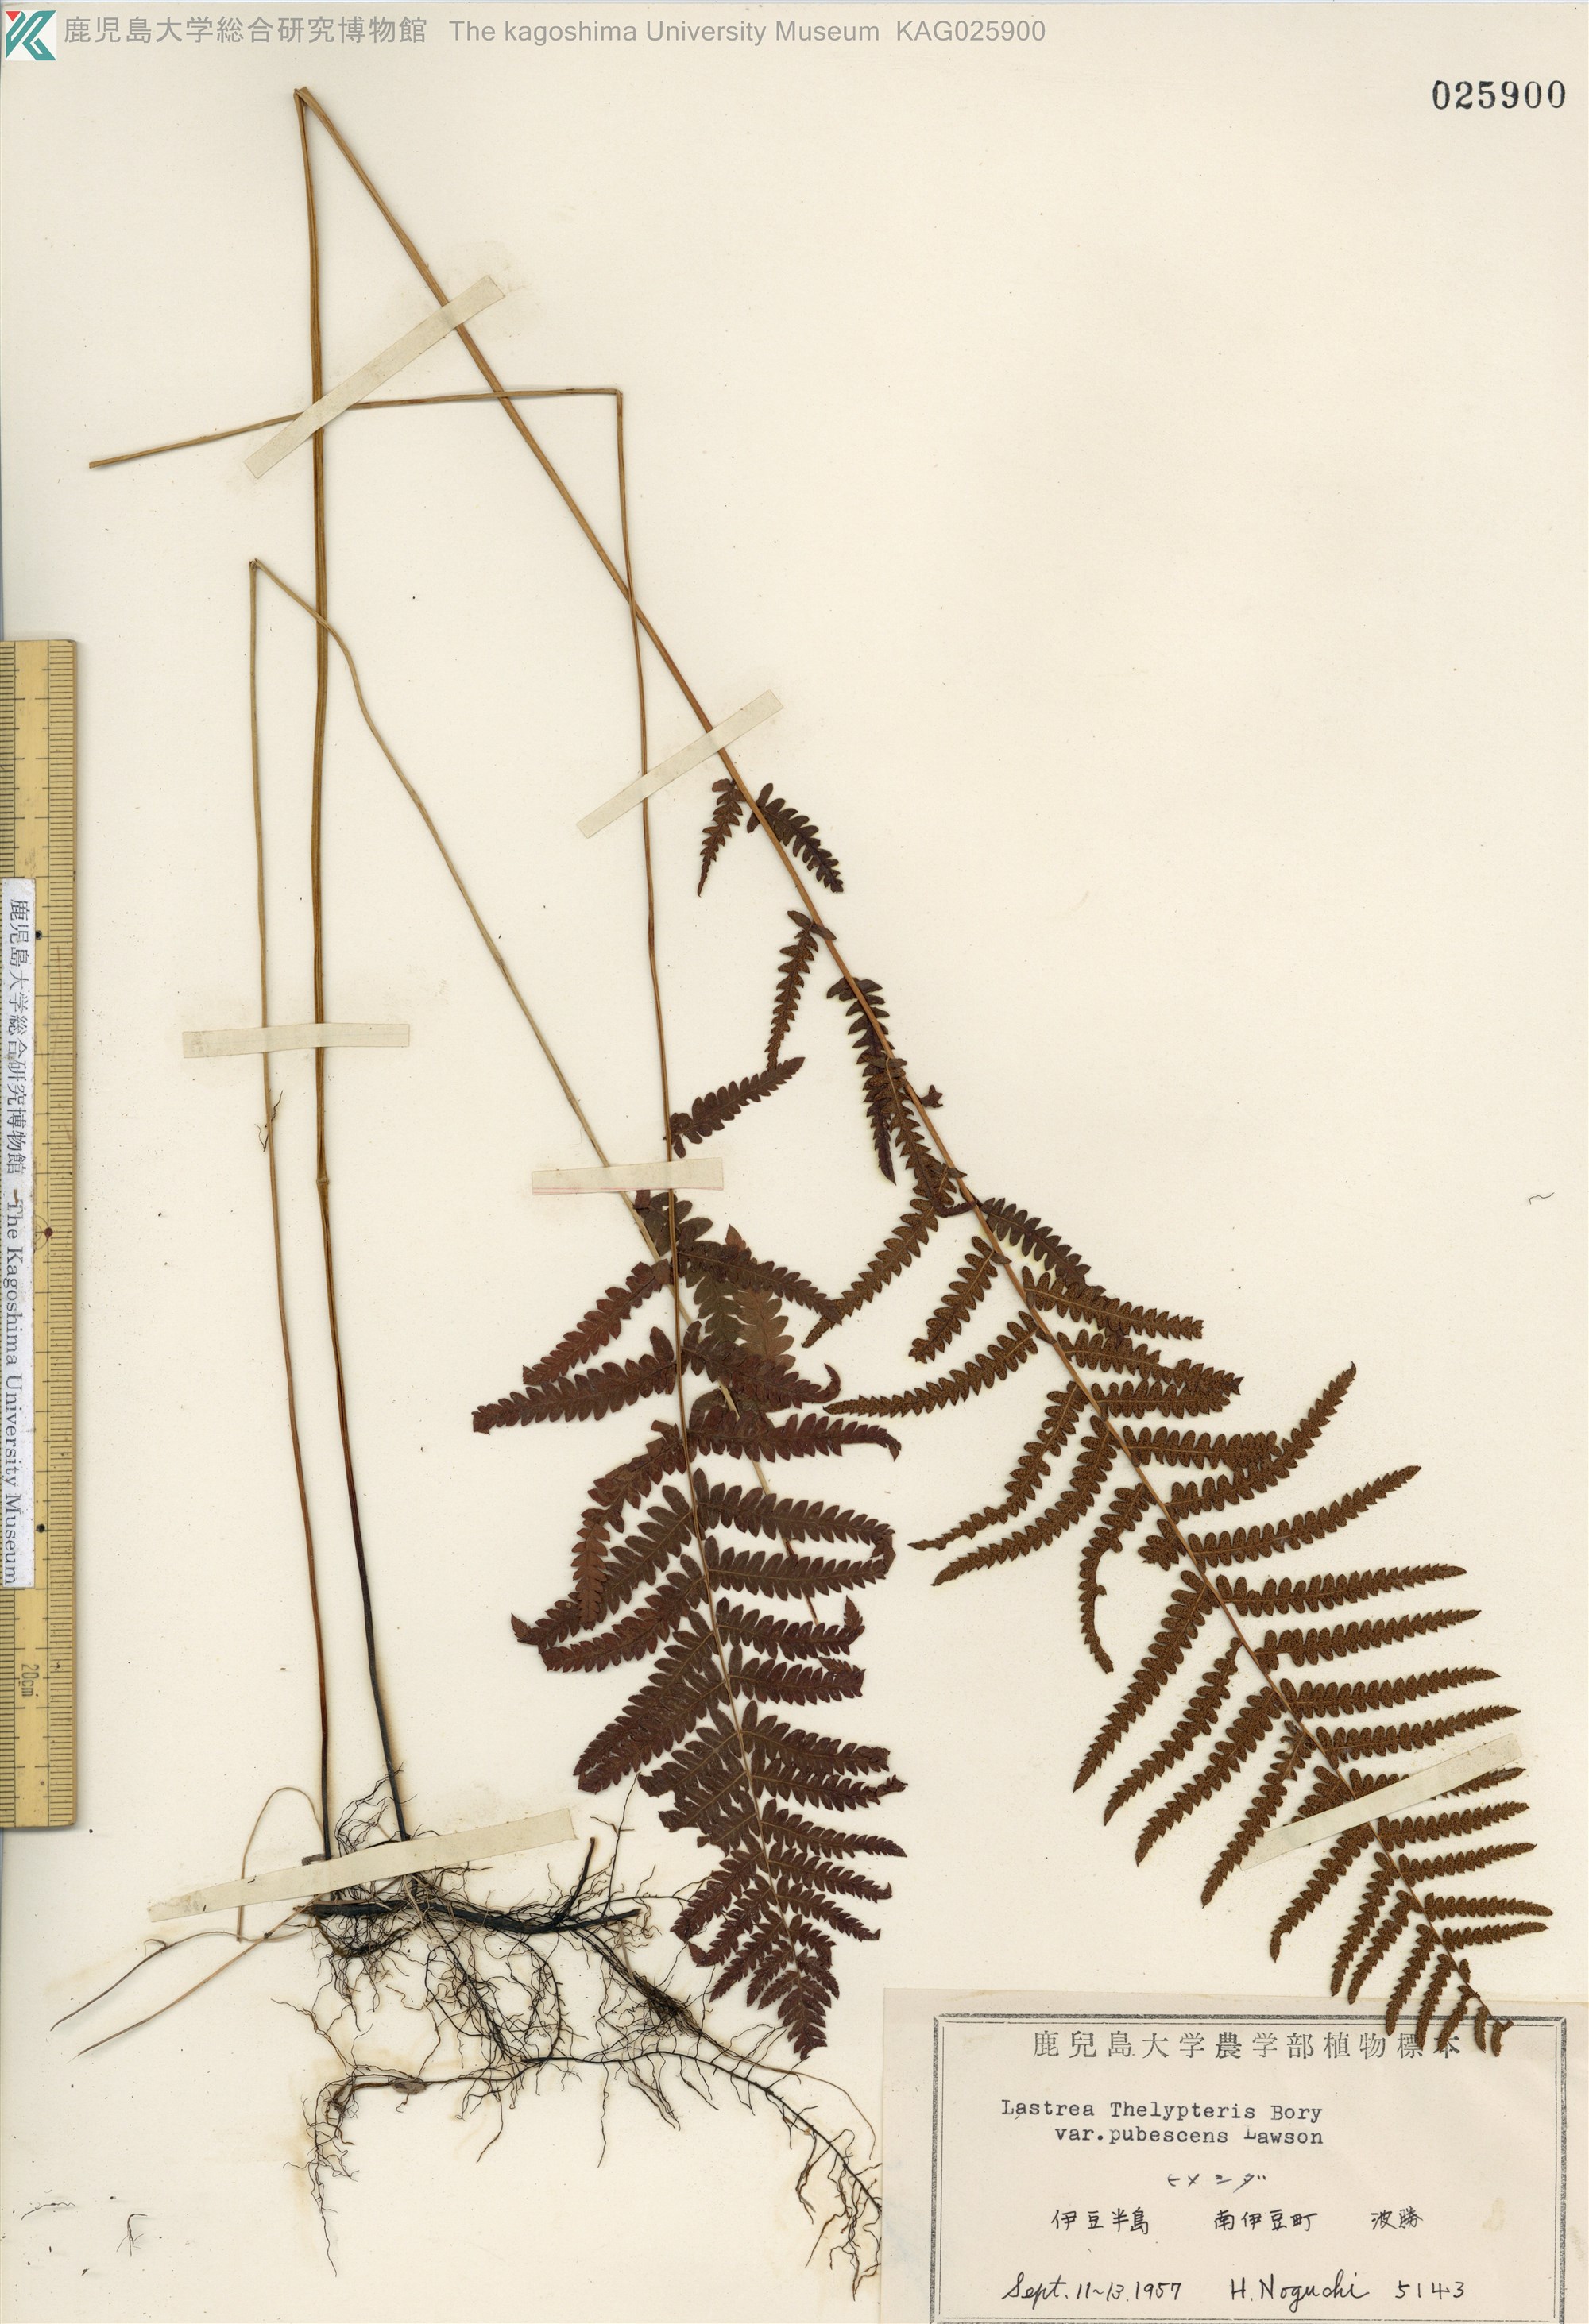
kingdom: Plantae
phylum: Tracheophyta
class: Polypodiopsida
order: Polypodiales
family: Thelypteridaceae
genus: Thelypteris
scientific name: Thelypteris palustris
